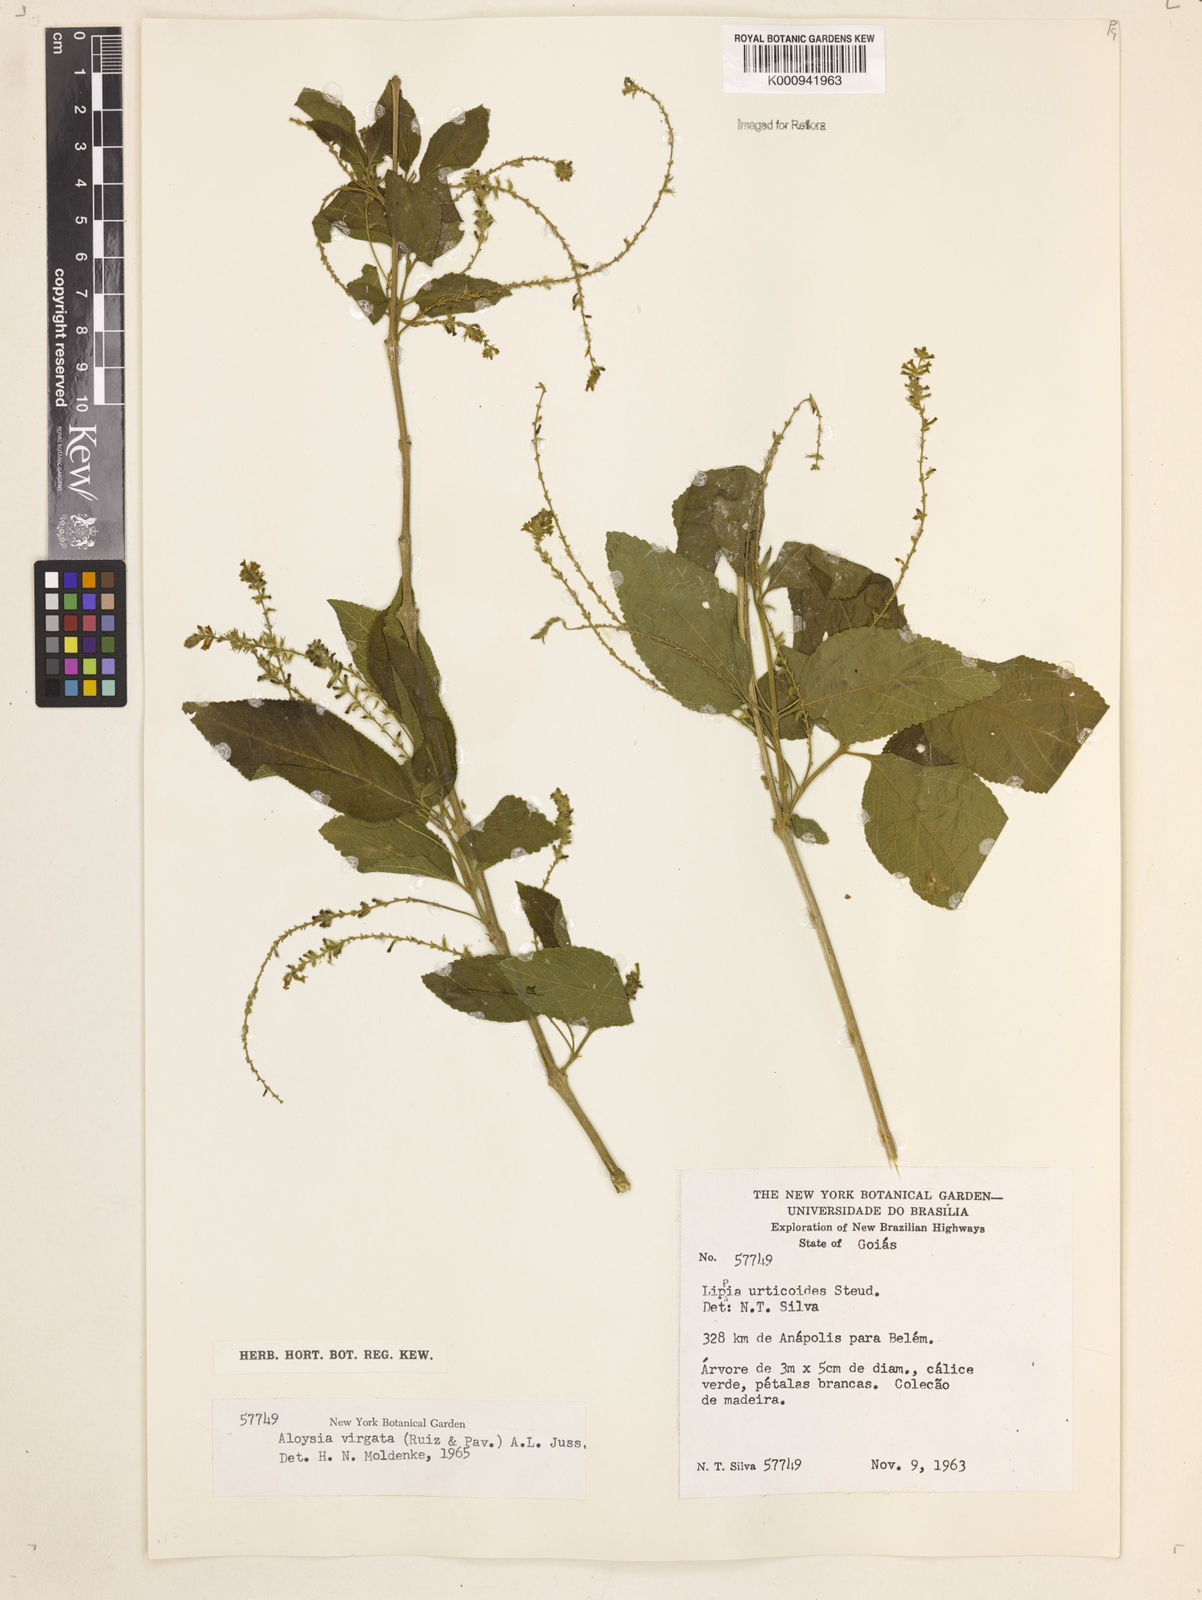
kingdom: Plantae
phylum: Tracheophyta
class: Magnoliopsida
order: Lamiales
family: Verbenaceae
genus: Aloysia
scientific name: Aloysia
